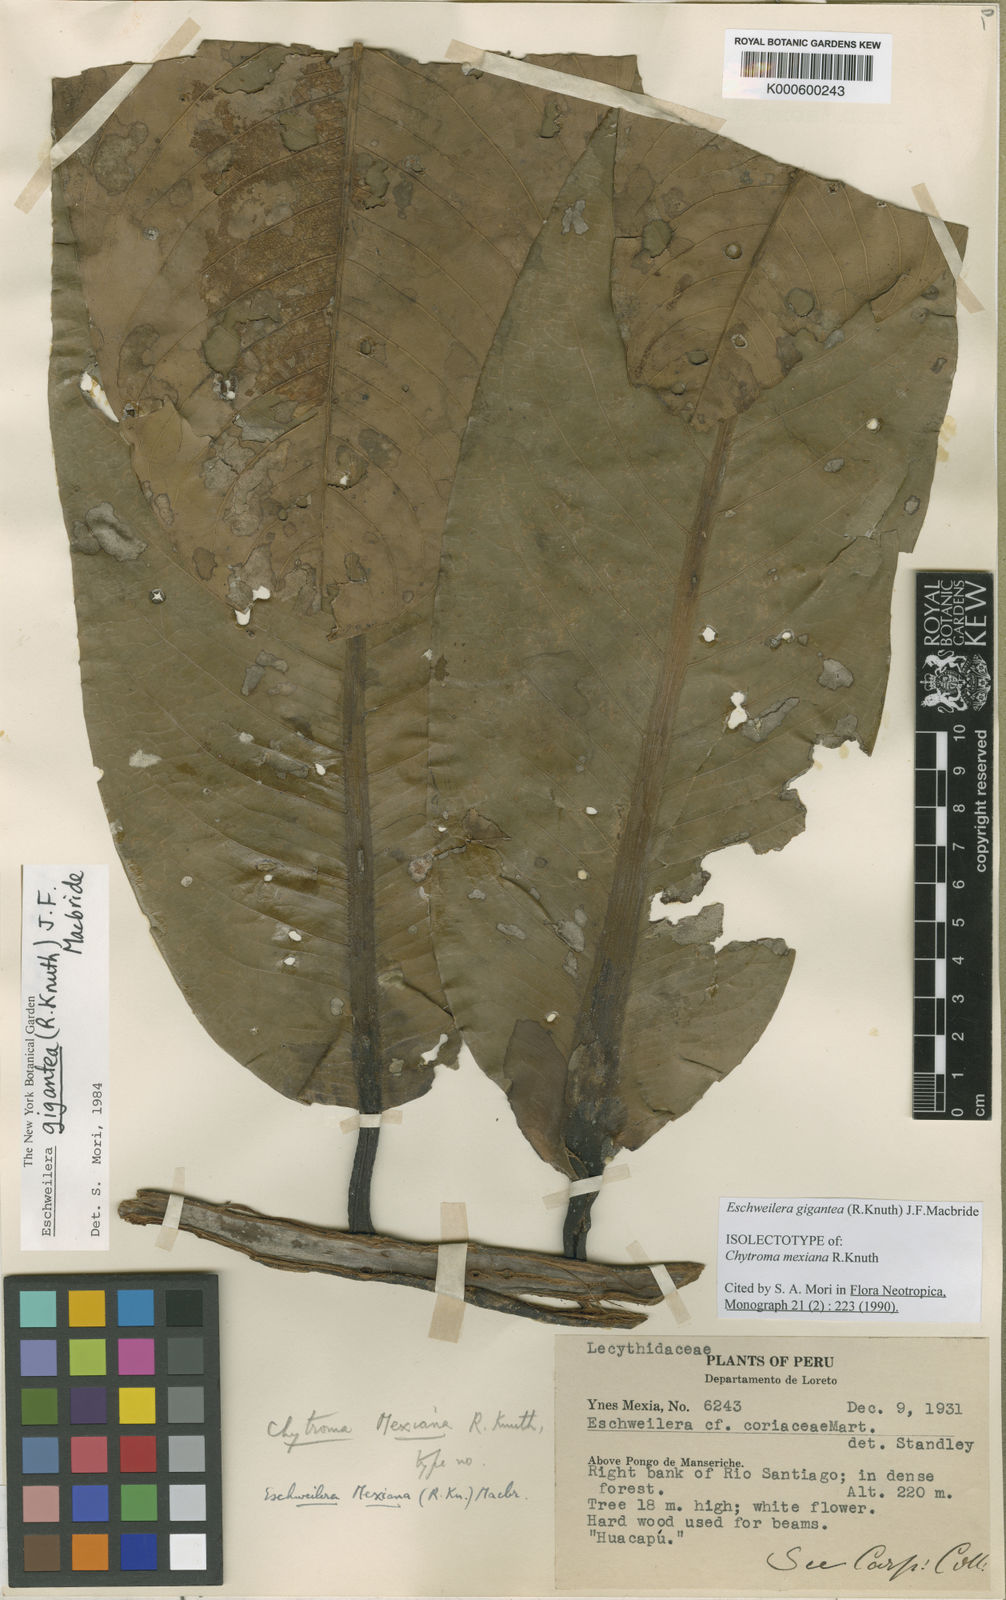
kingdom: Plantae
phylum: Tracheophyta
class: Magnoliopsida
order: Ericales
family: Lecythidaceae
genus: Eschweilera
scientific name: Eschweilera gigantea
